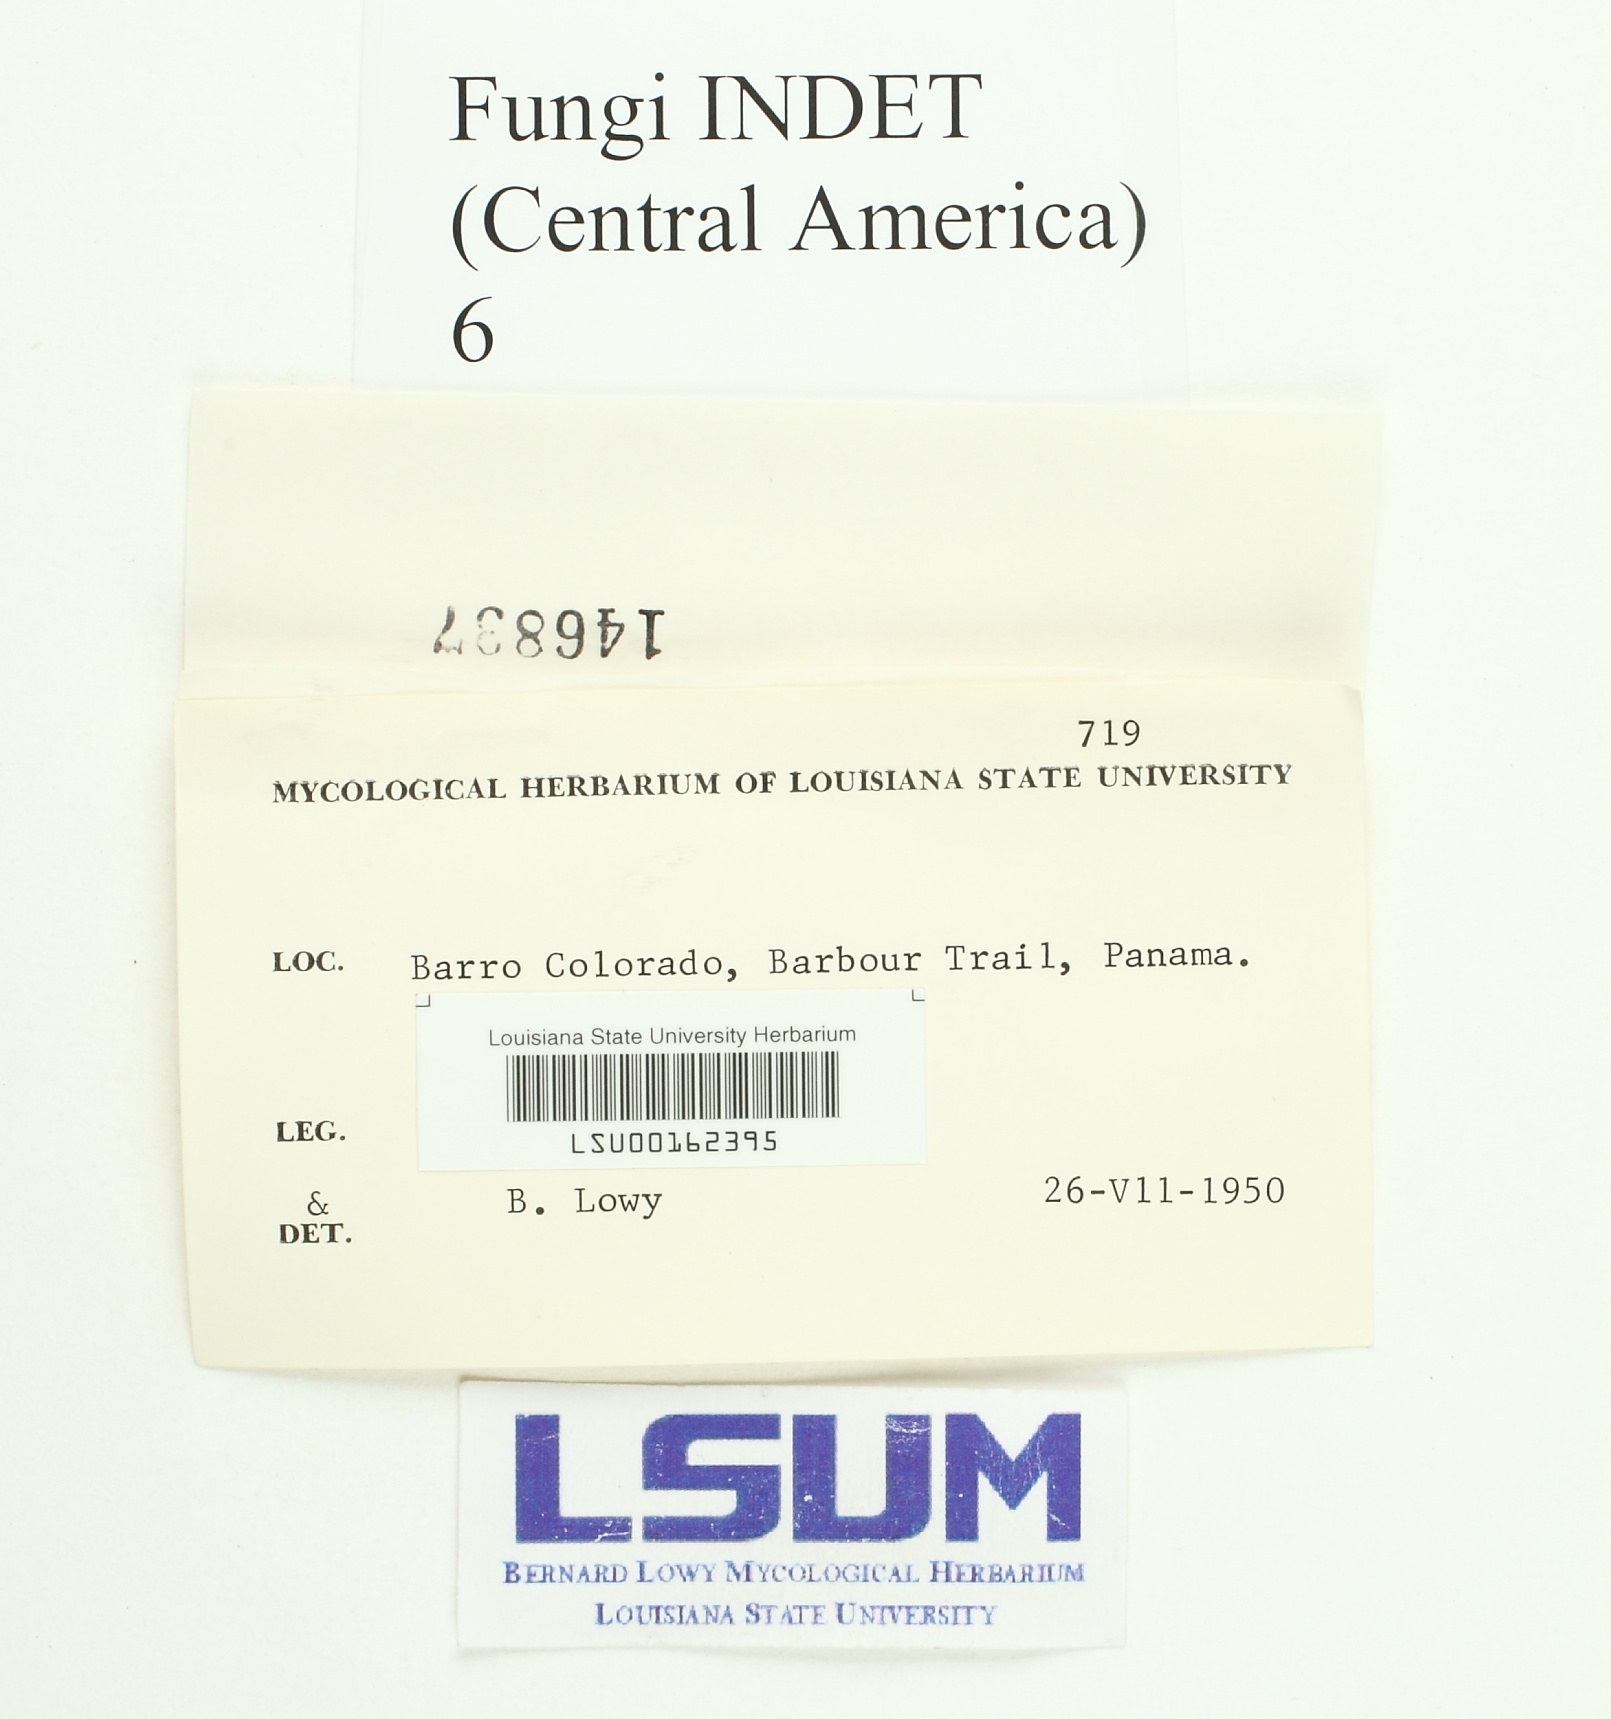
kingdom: Fungi
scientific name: Fungi
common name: Fungi
